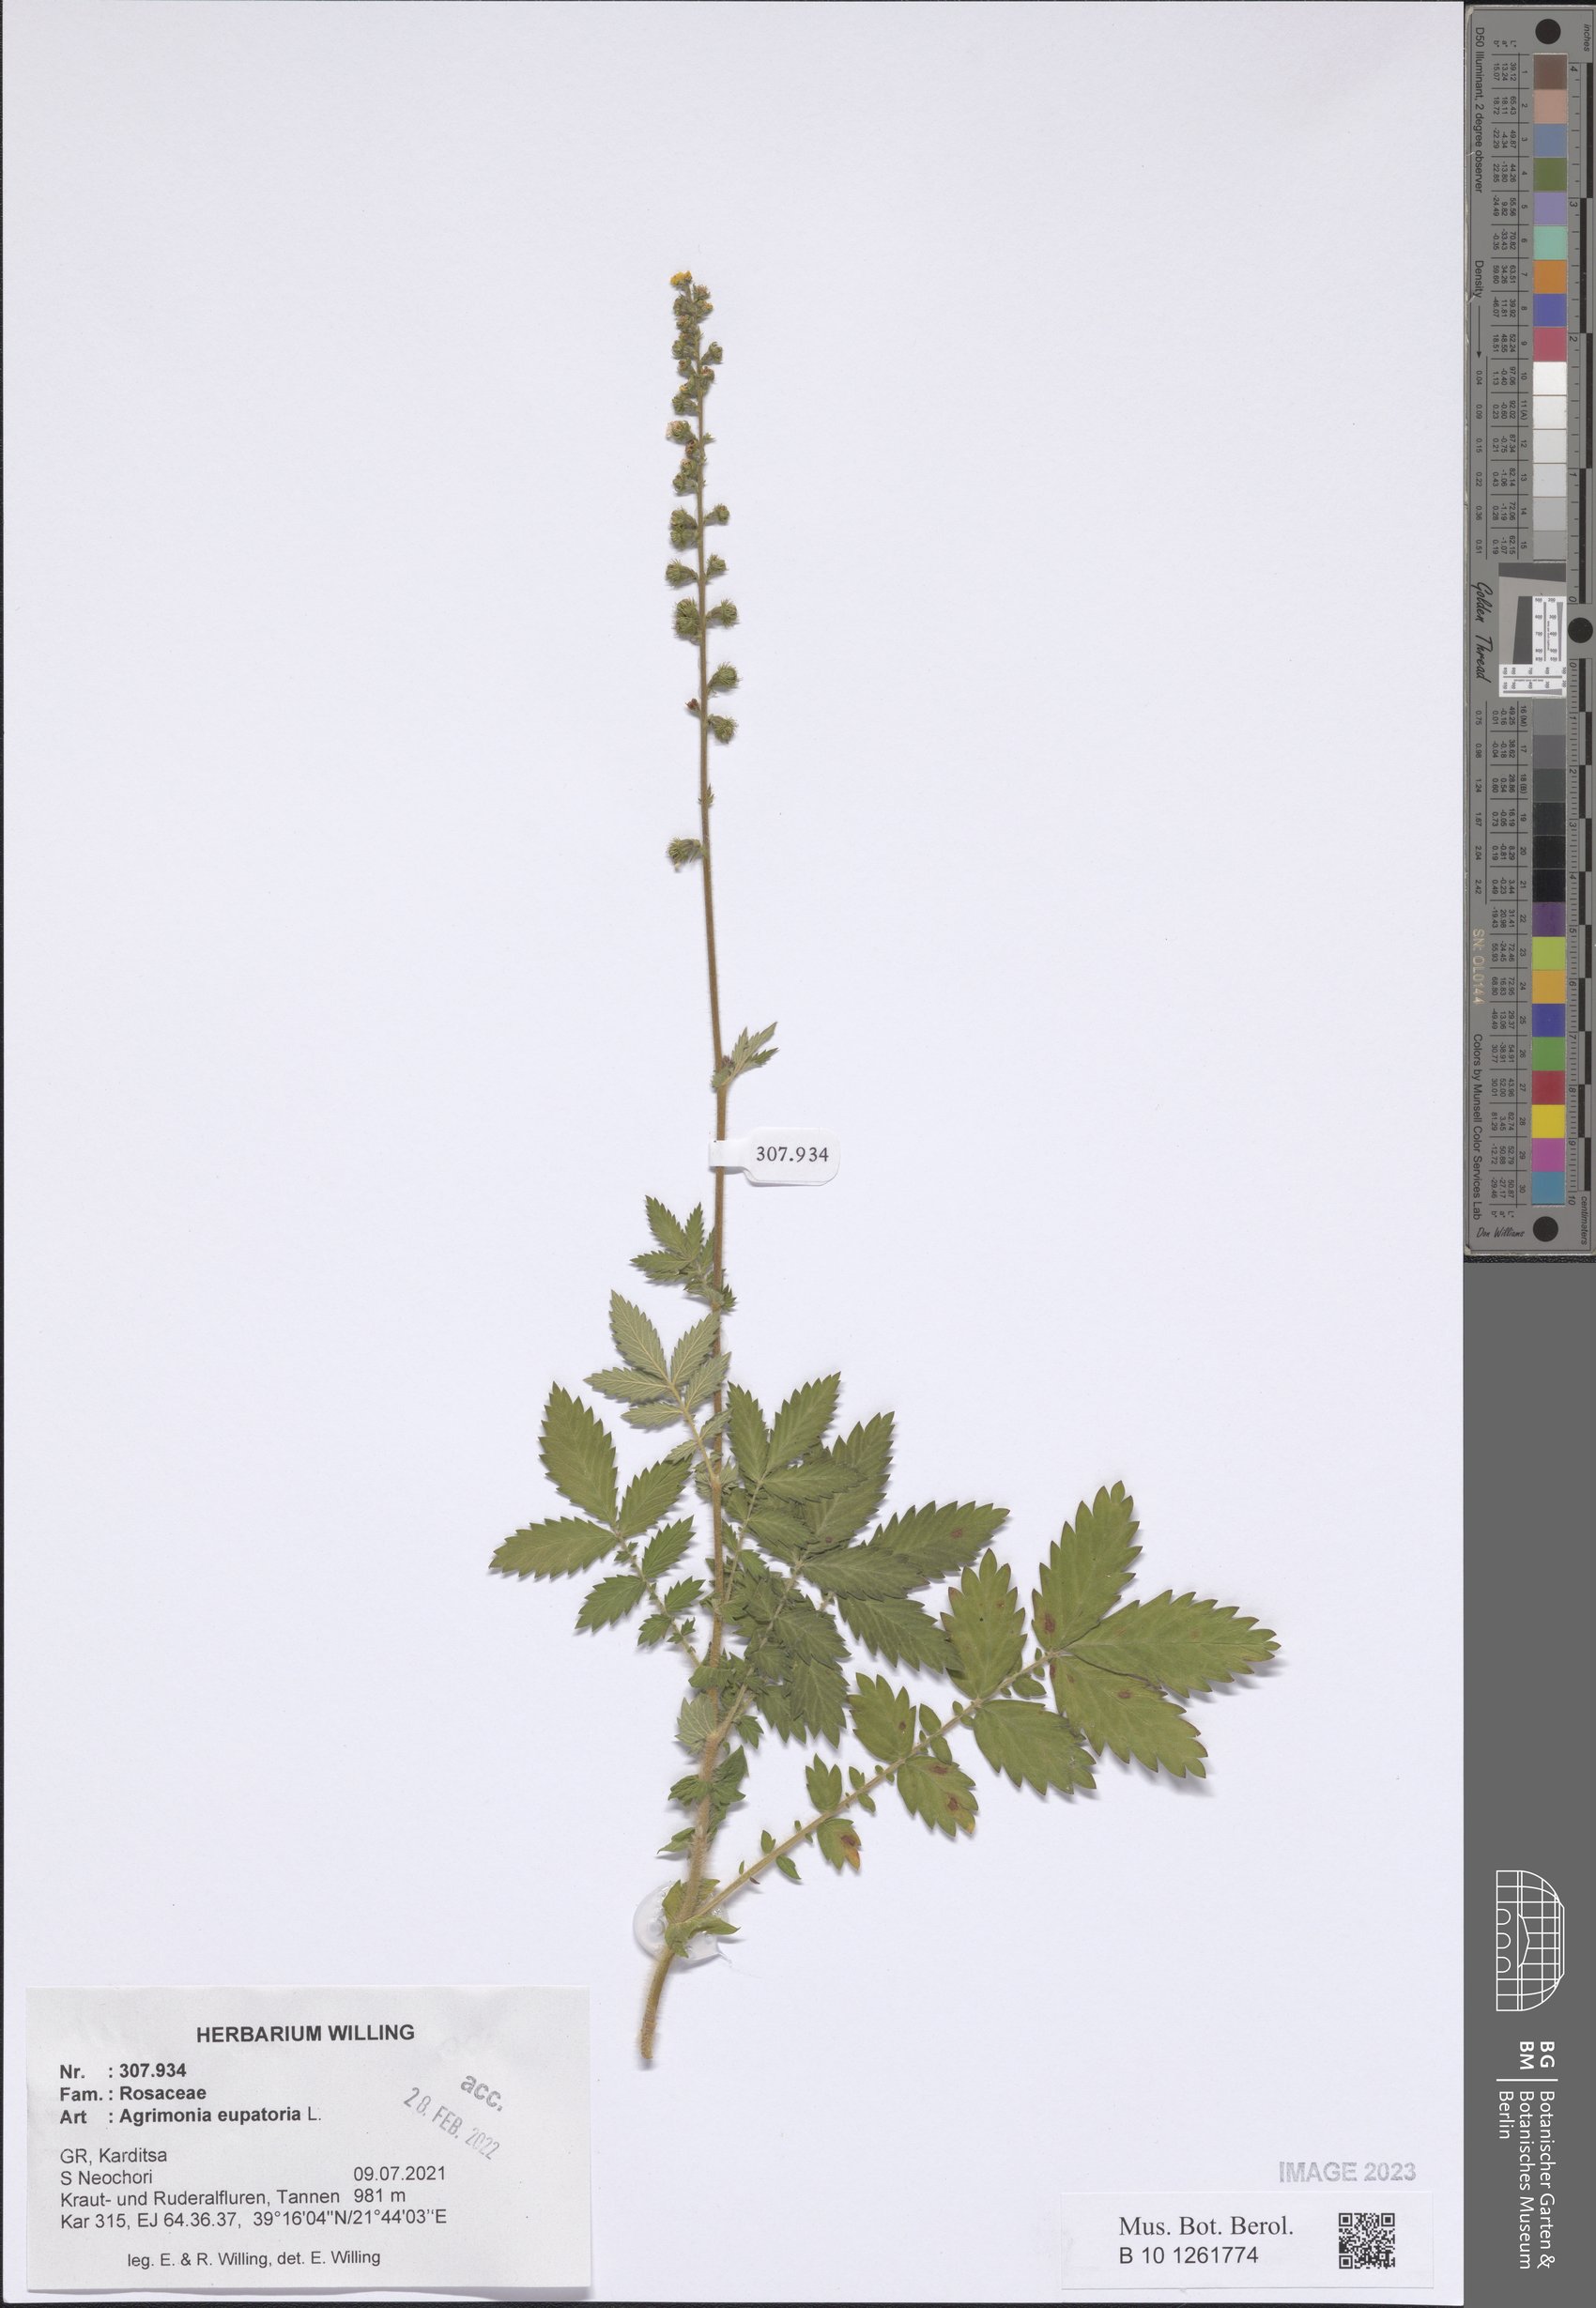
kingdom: Plantae
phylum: Tracheophyta
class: Magnoliopsida
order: Rosales
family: Rosaceae
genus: Agrimonia
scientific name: Agrimonia eupatoria
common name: Agrimony
